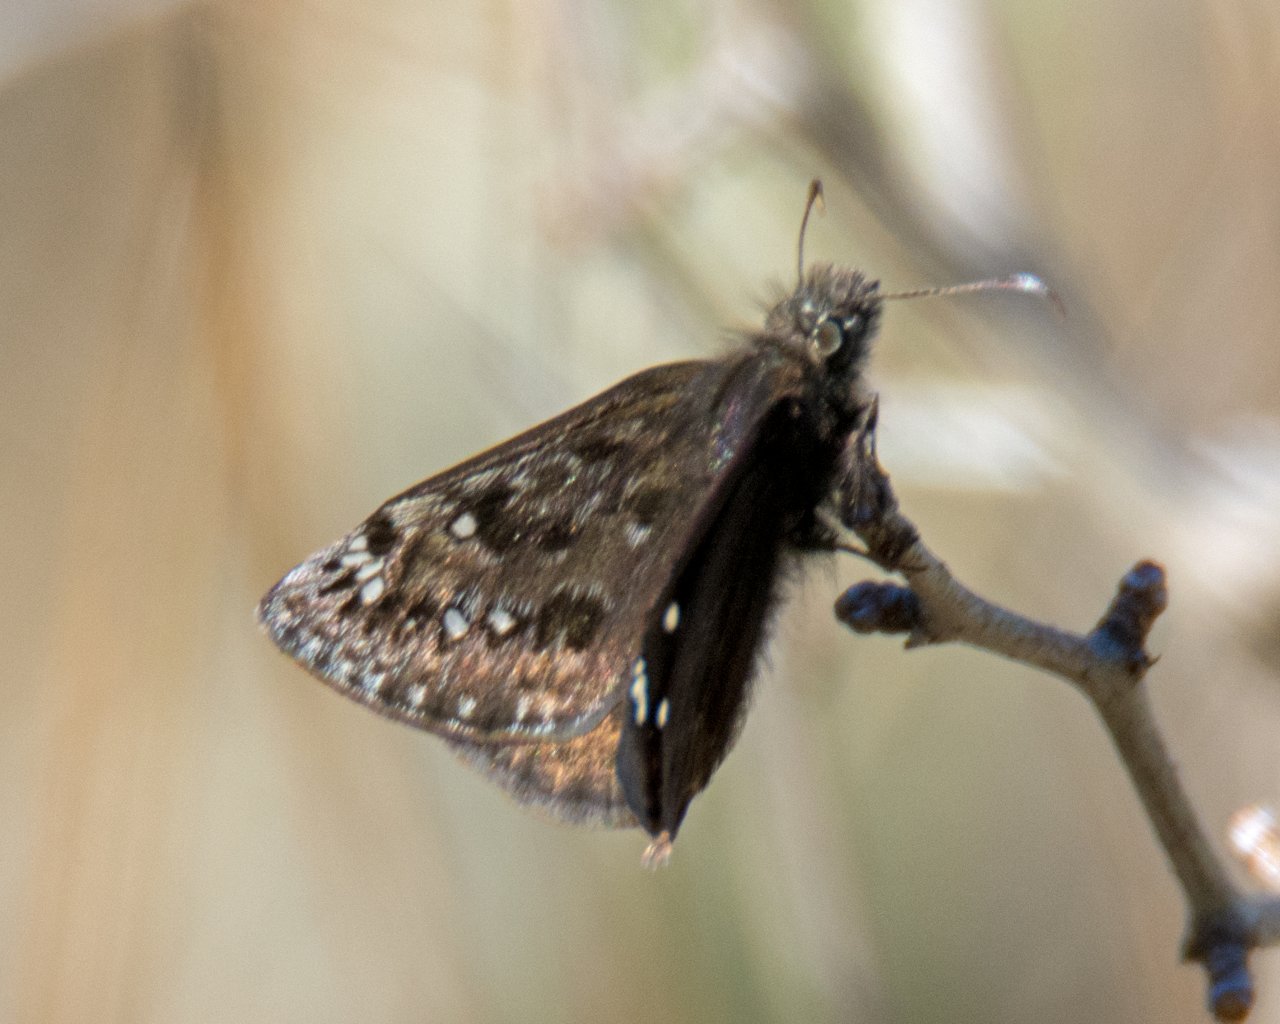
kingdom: Animalia
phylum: Arthropoda
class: Insecta
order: Lepidoptera
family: Hesperiidae
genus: Gesta
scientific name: Gesta
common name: Juvenal's Duskywing
